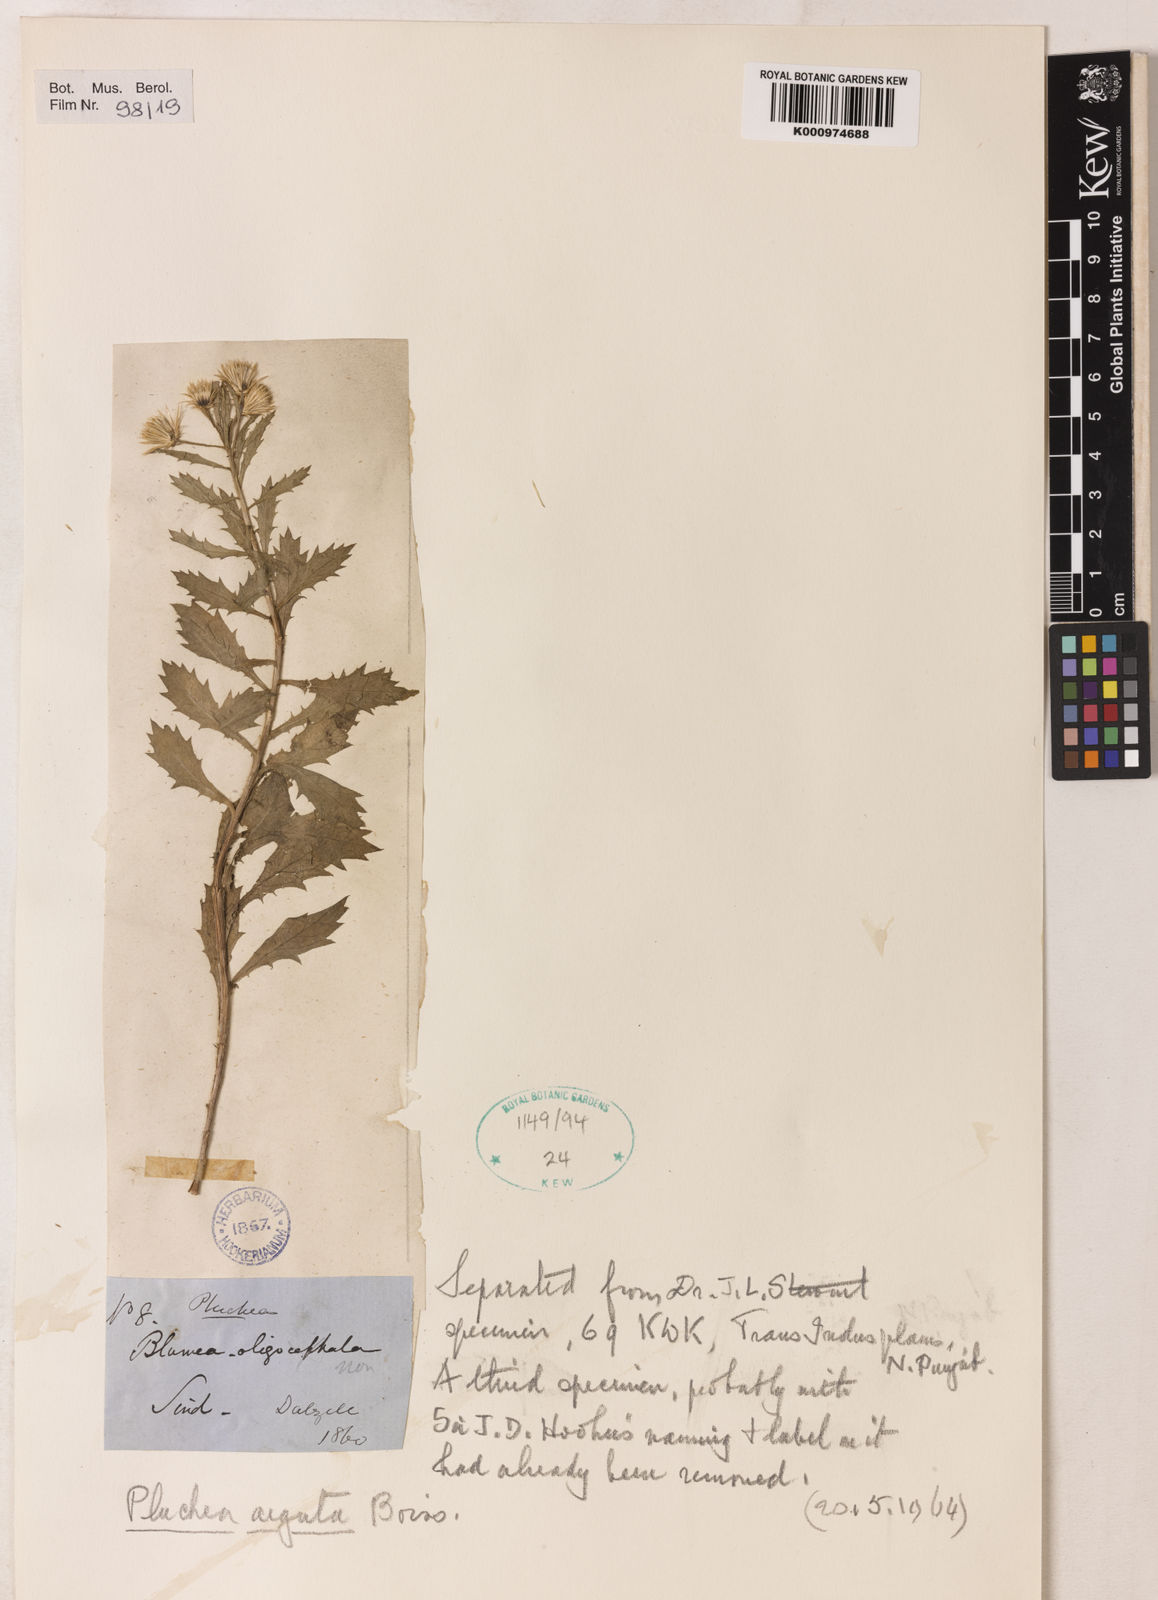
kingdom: Plantae
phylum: Tracheophyta
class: Magnoliopsida
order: Asterales
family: Asteraceae
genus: Pluchea
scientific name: Pluchea arguta
